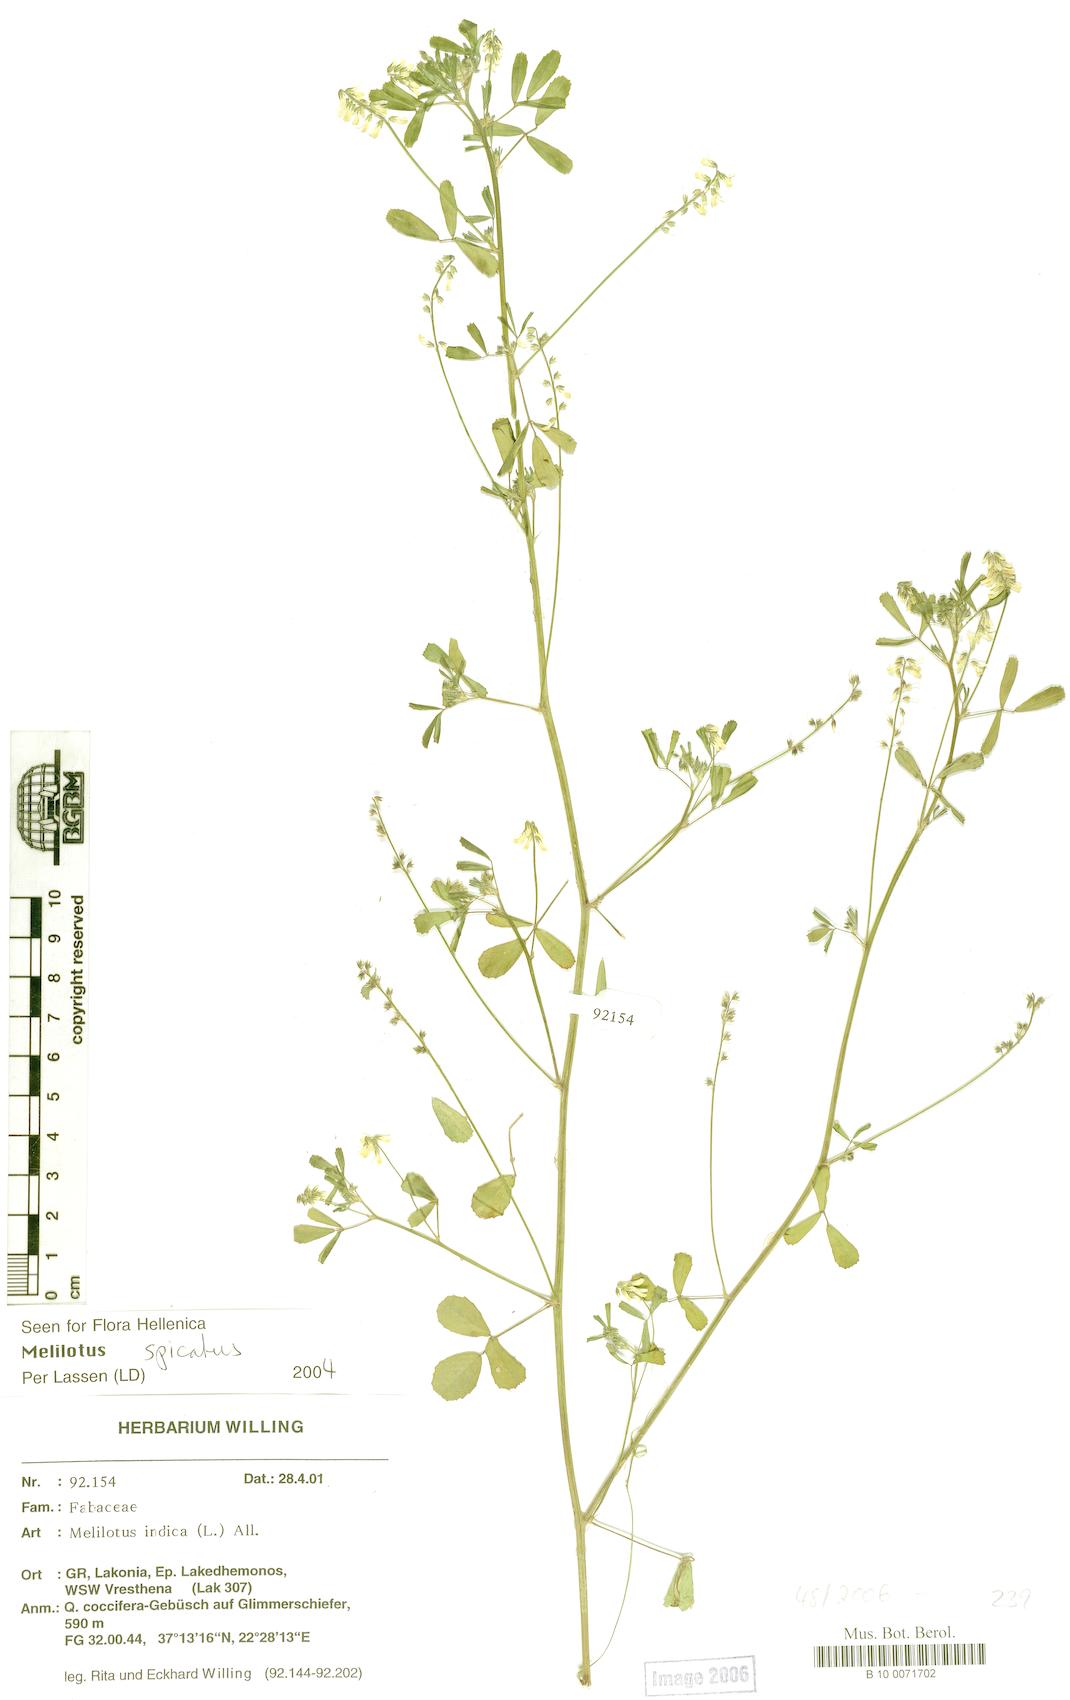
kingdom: Plantae
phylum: Tracheophyta
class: Magnoliopsida
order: Fabales
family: Fabaceae
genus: Melilotus
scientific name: Melilotus indicus
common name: Small melilot
